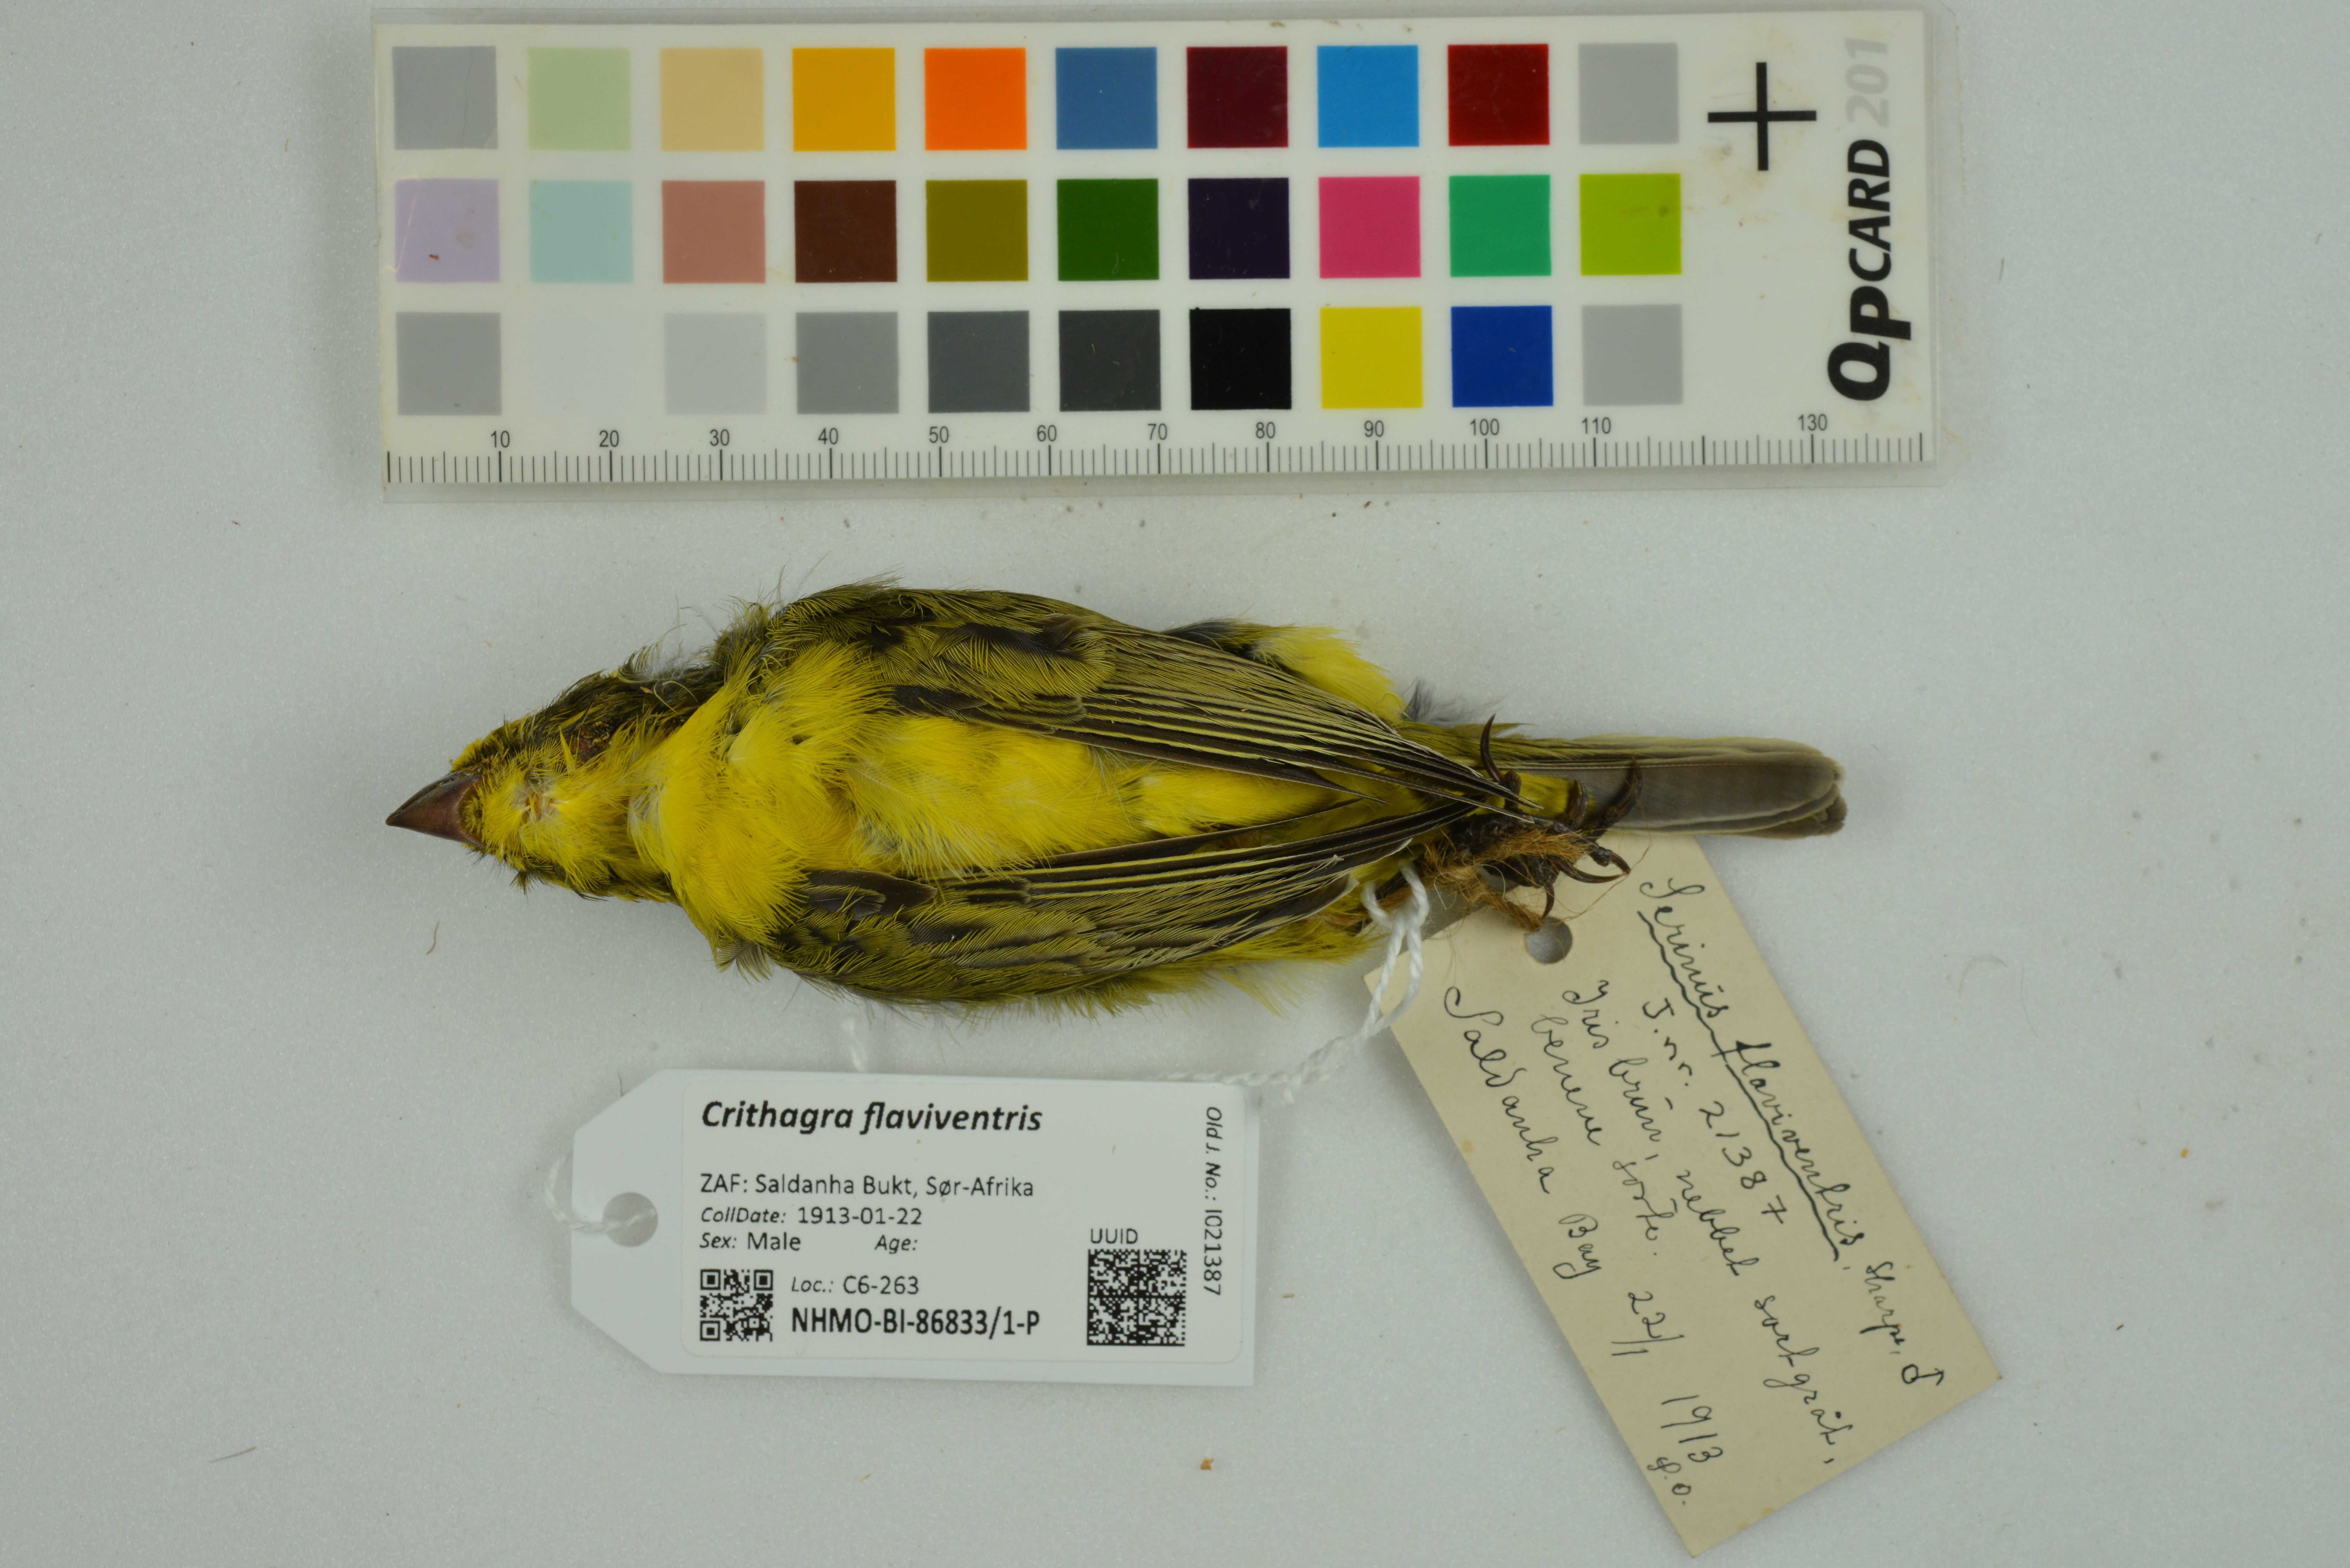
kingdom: Animalia
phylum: Chordata
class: Aves
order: Passeriformes
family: Fringillidae
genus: Crithagra
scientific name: Crithagra flaviventris
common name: Yellow canary
